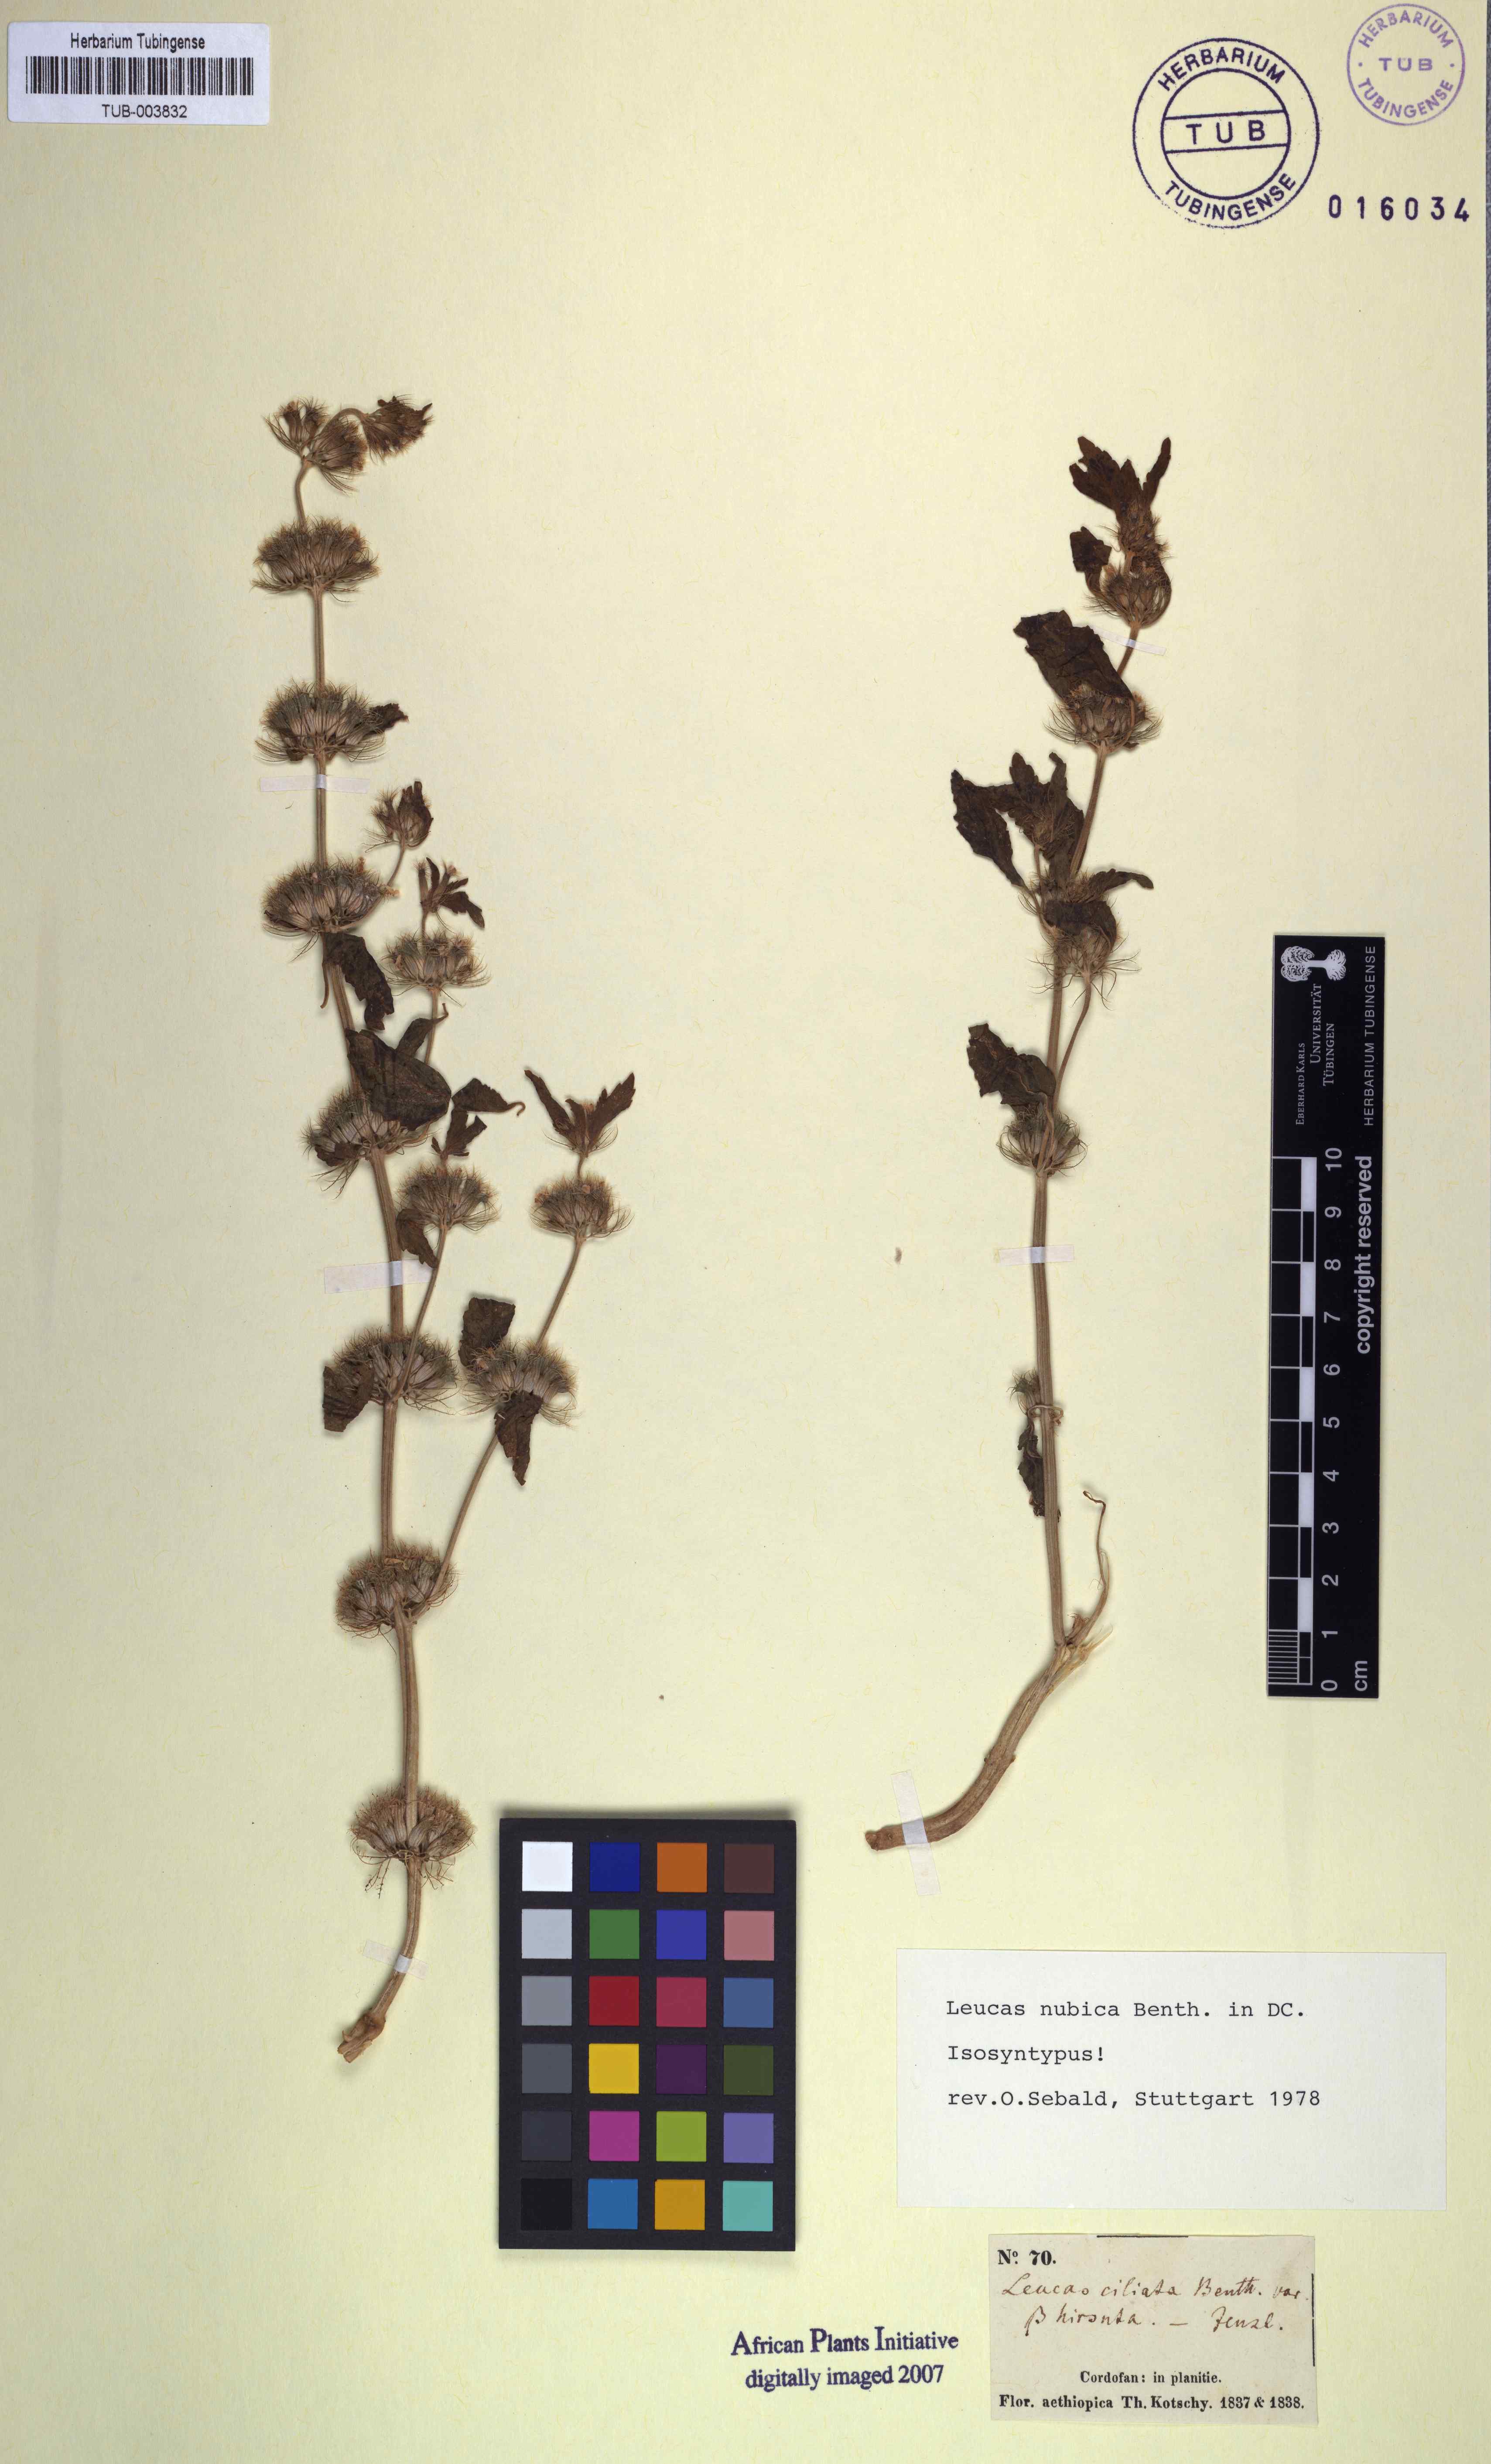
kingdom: Plantae
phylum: Tracheophyta
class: Magnoliopsida
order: Lamiales
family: Lamiaceae
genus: Leucas
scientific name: Leucas nubica
